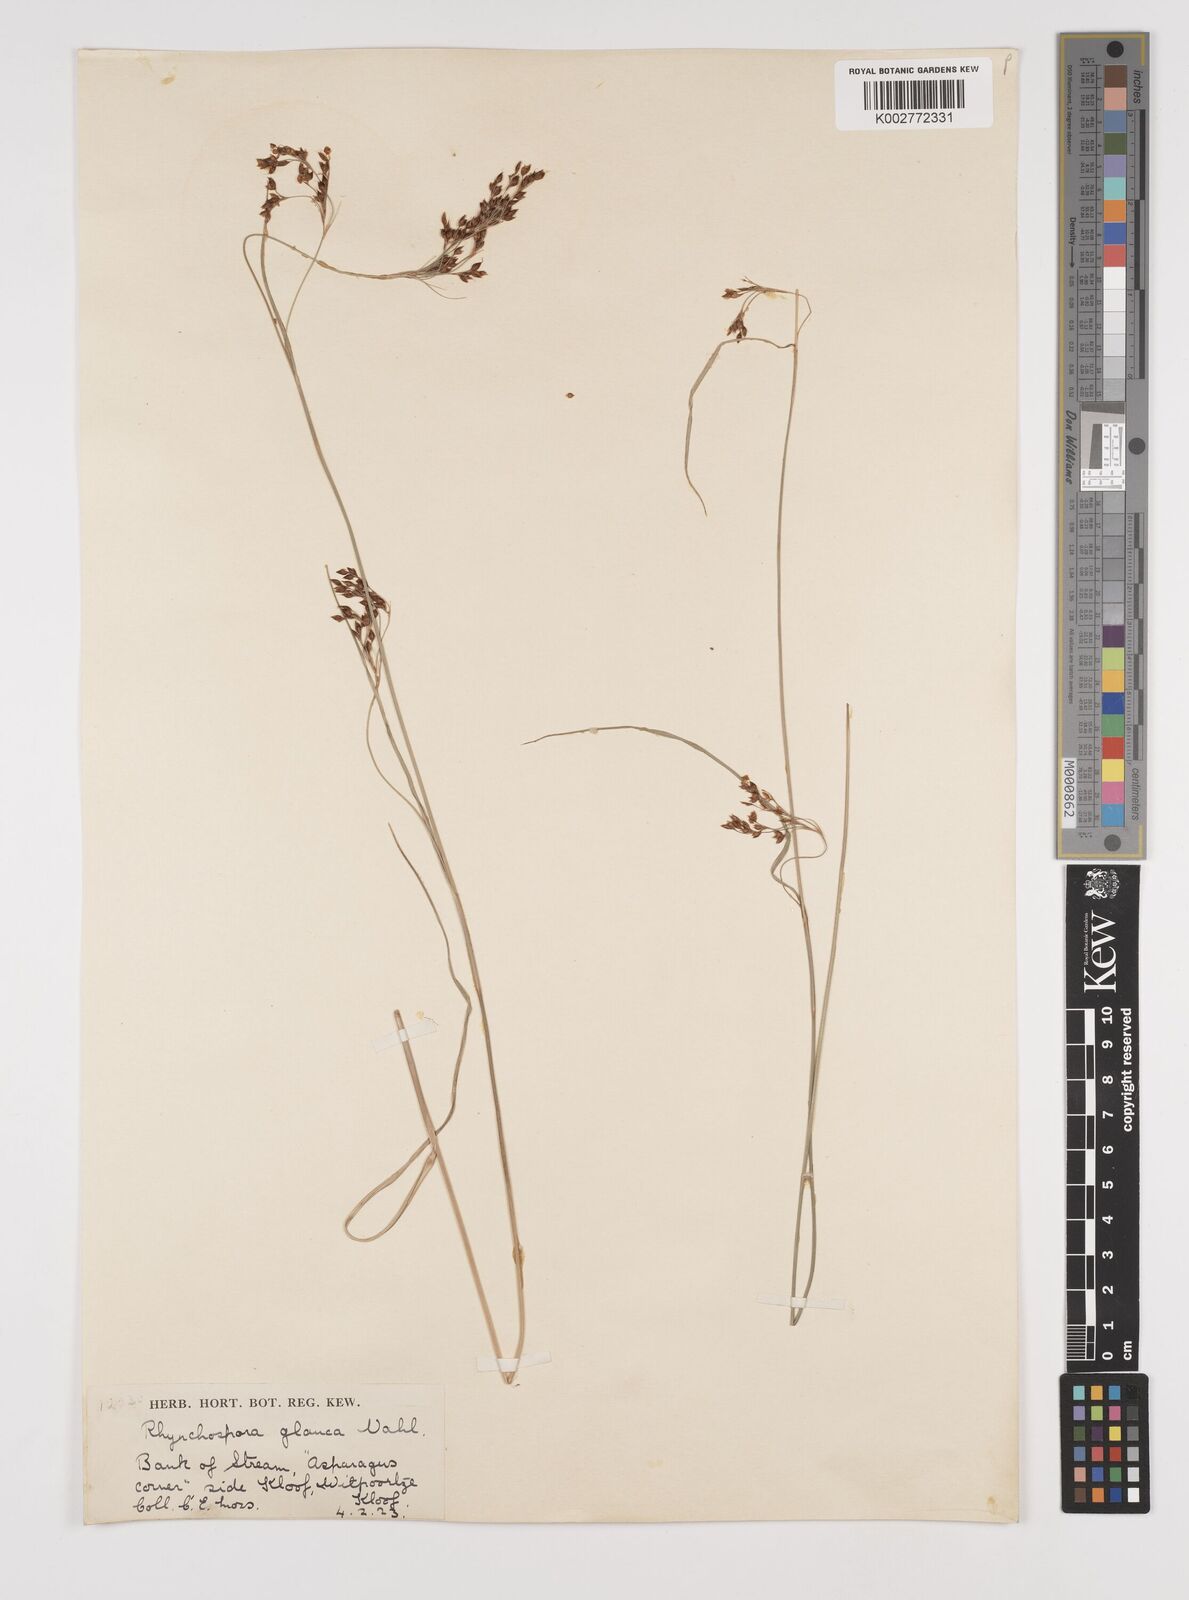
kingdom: Plantae
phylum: Tracheophyta
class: Liliopsida
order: Poales
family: Cyperaceae
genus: Rhynchospora
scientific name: Rhynchospora rugosa
